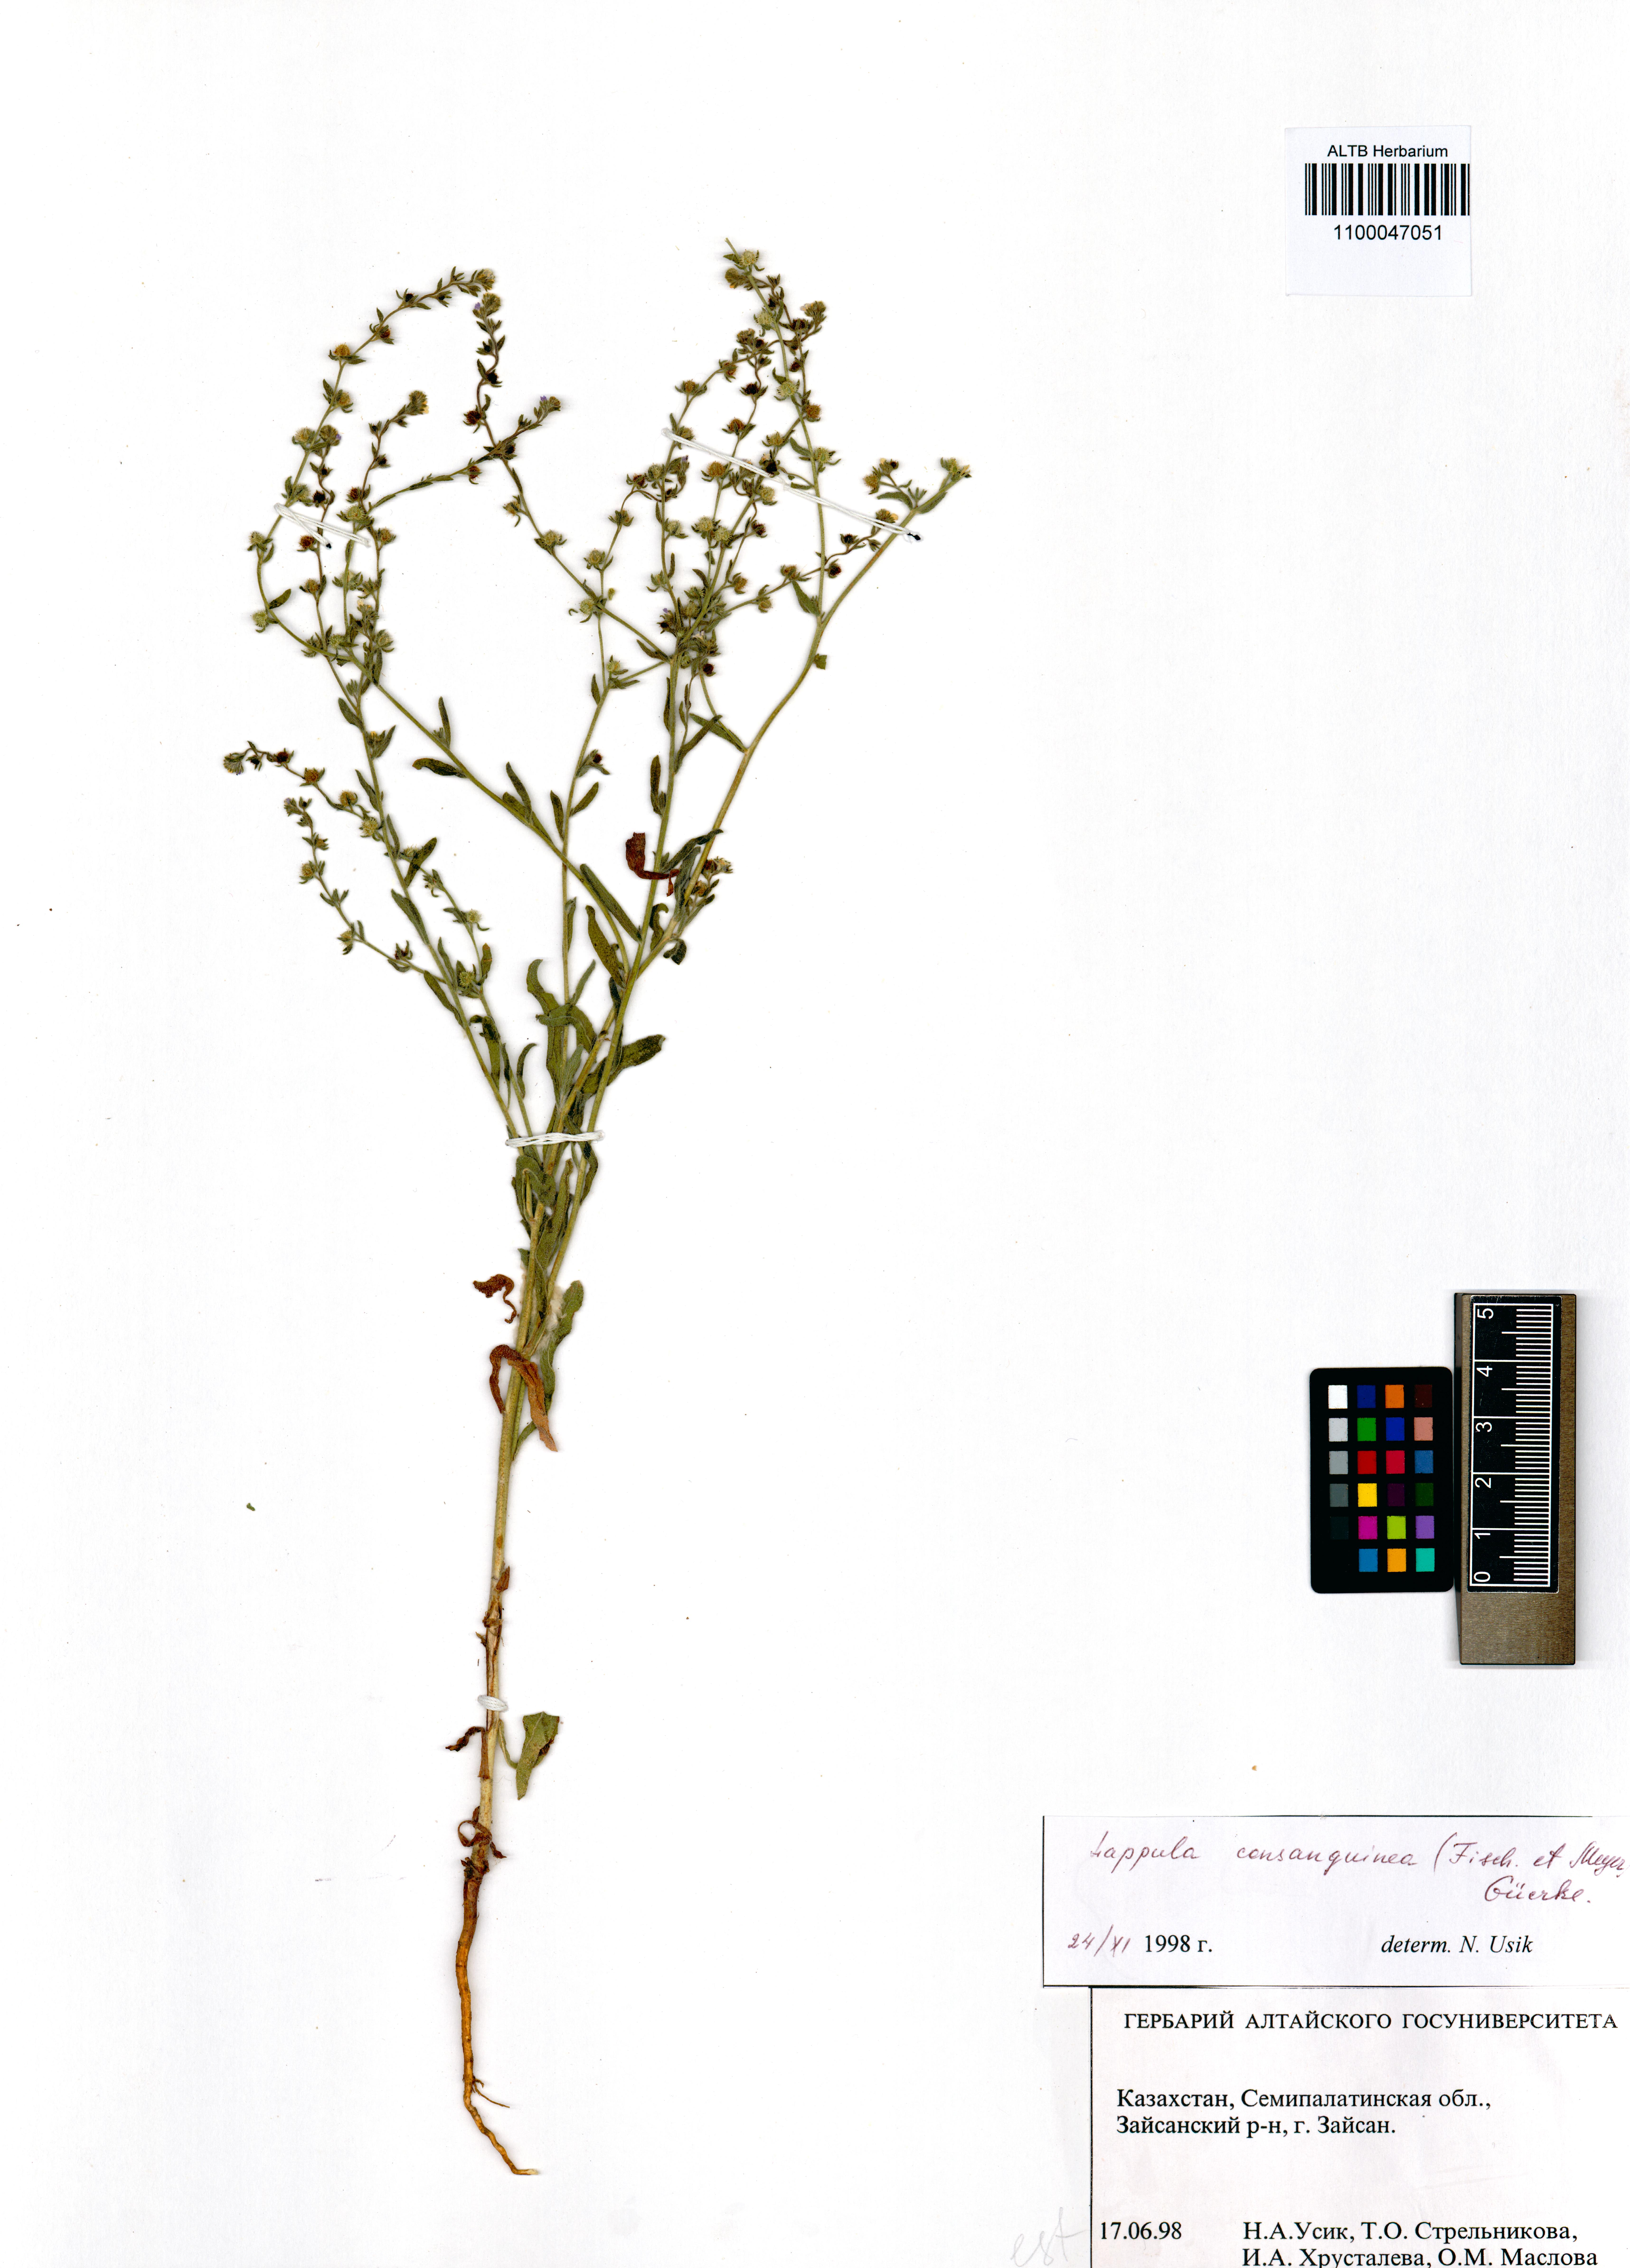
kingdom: Plantae
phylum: Tracheophyta
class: Magnoliopsida
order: Boraginales
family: Boraginaceae
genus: Lappula
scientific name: Lappula squarrosa
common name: European stickseed
